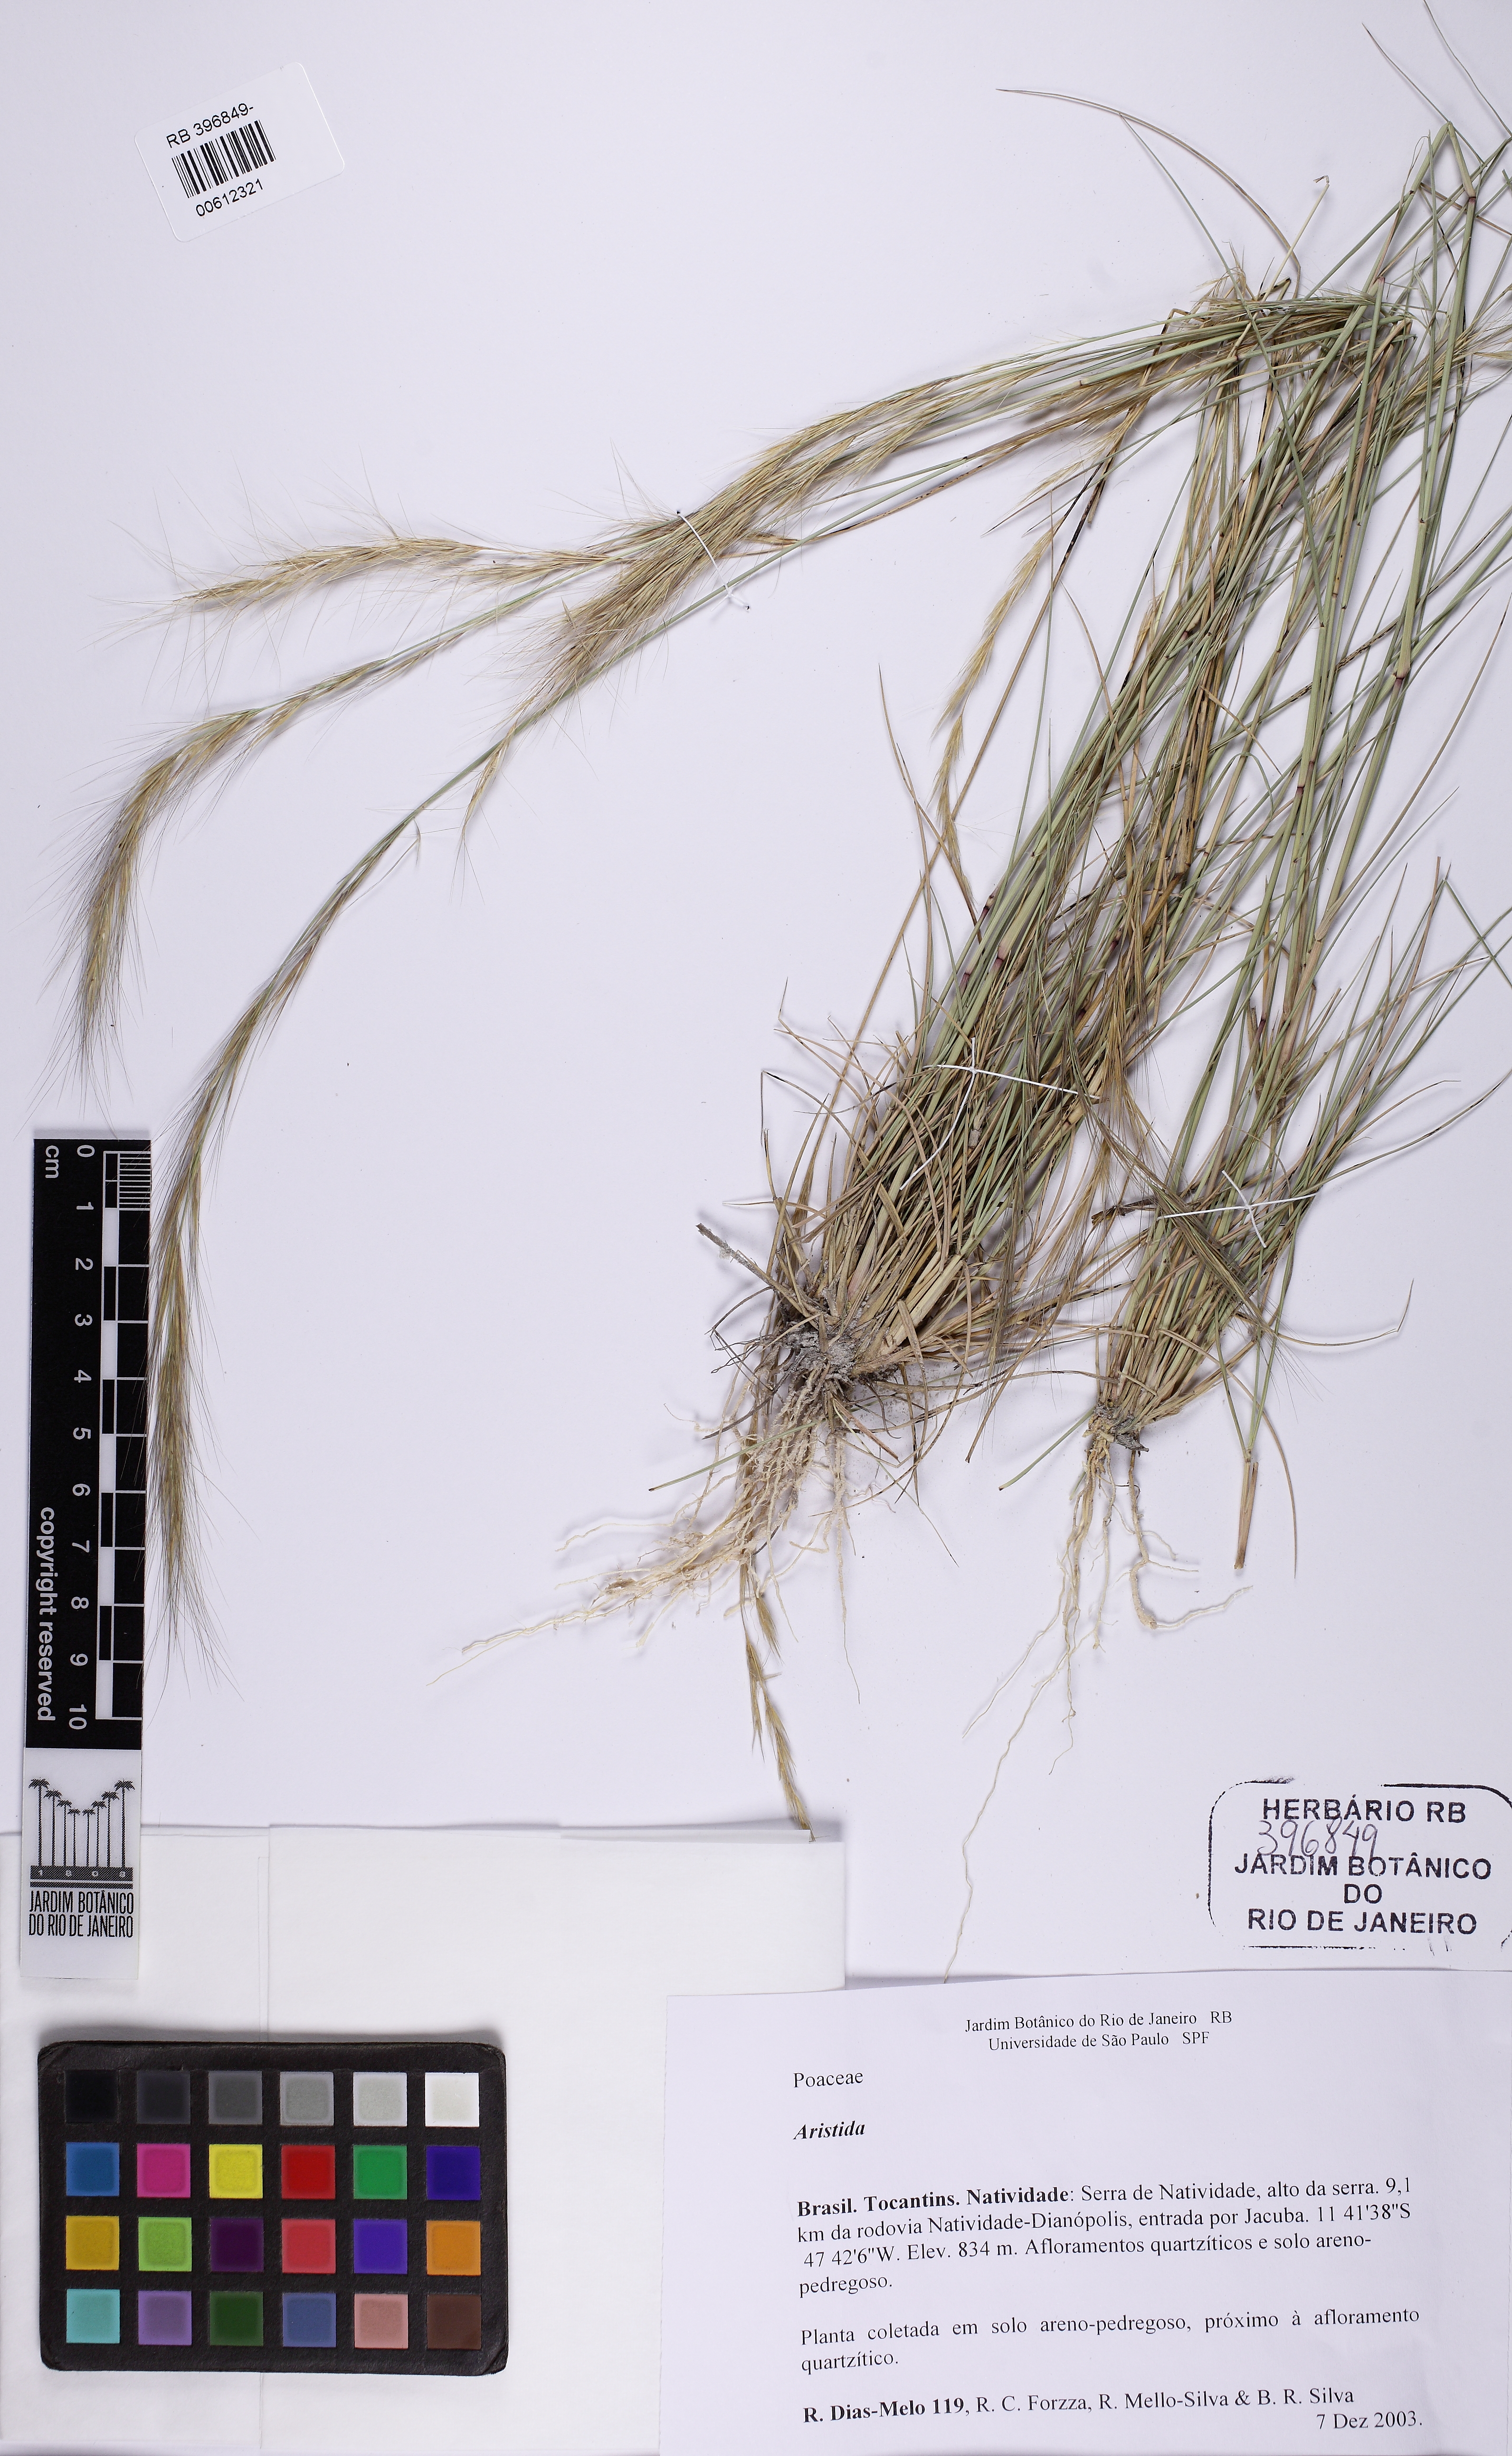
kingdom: Plantae
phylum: Tracheophyta
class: Liliopsida
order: Poales
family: Poaceae
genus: Aristida
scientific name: Aristida
